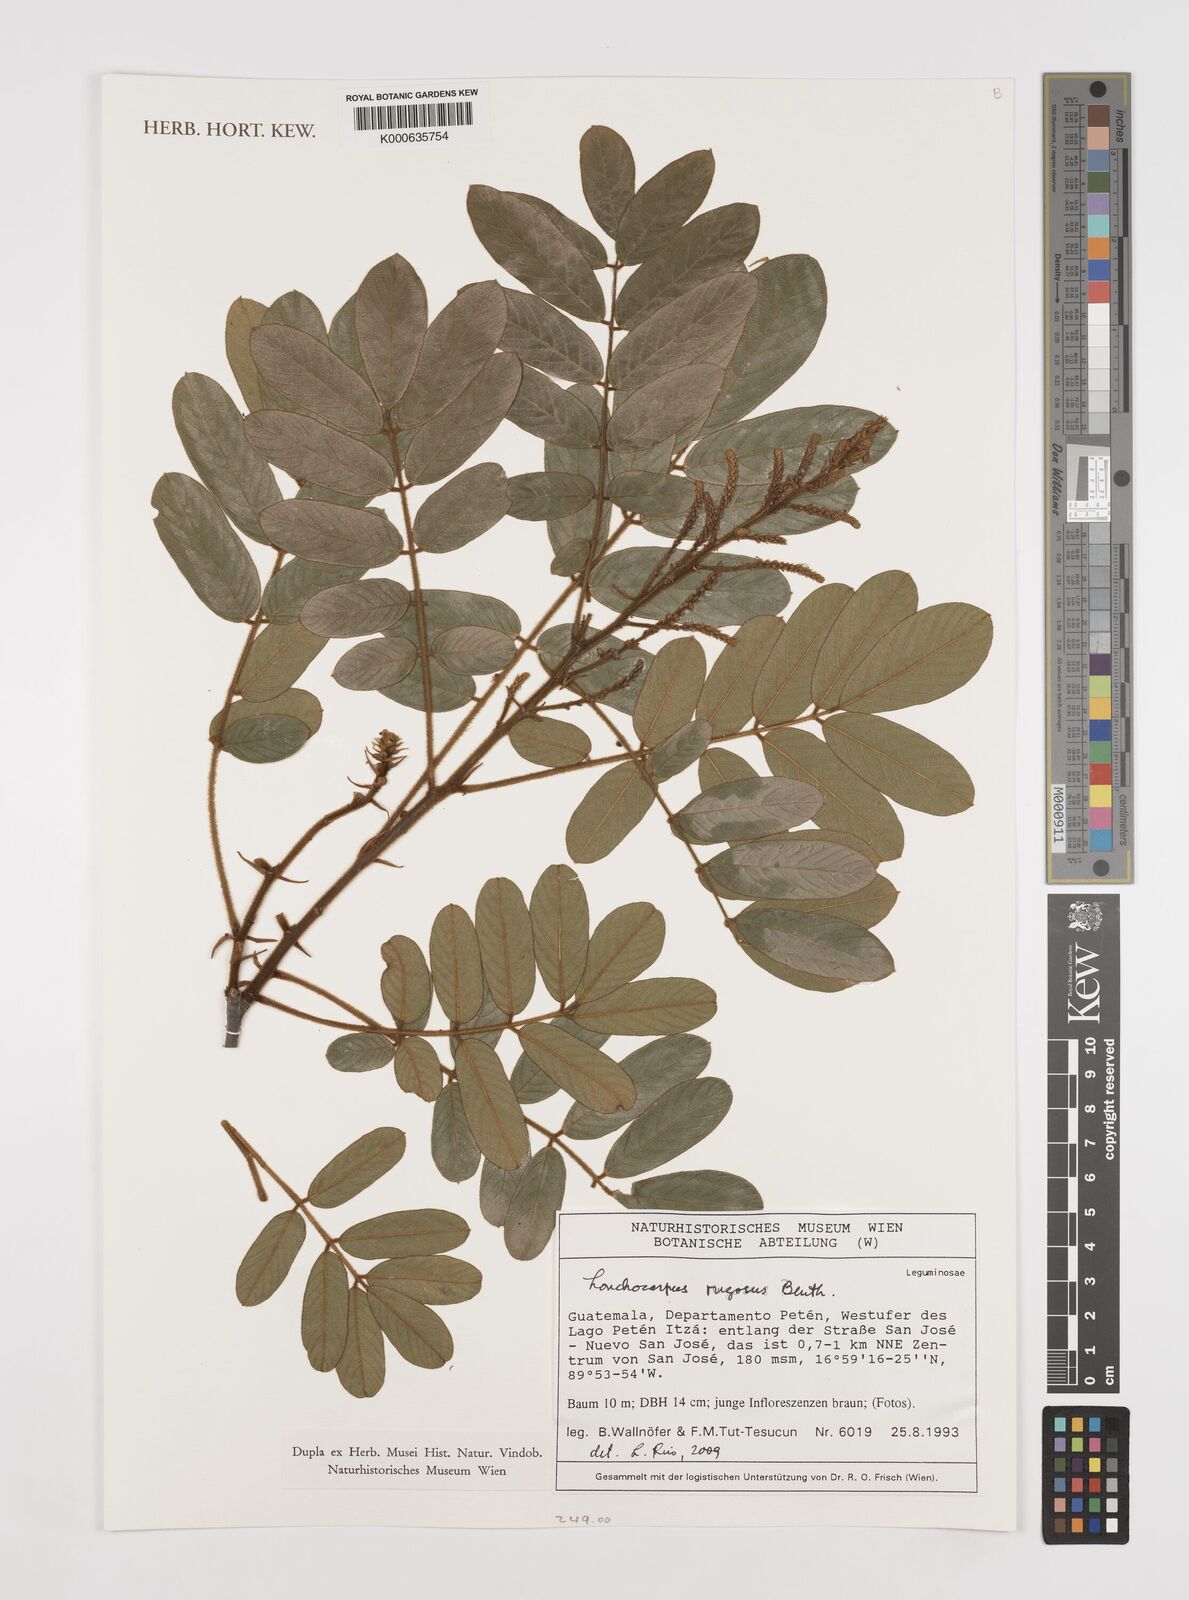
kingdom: Plantae
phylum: Tracheophyta
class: Magnoliopsida
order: Fabales
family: Fabaceae
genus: Lonchocarpus
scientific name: Lonchocarpus rugosus
